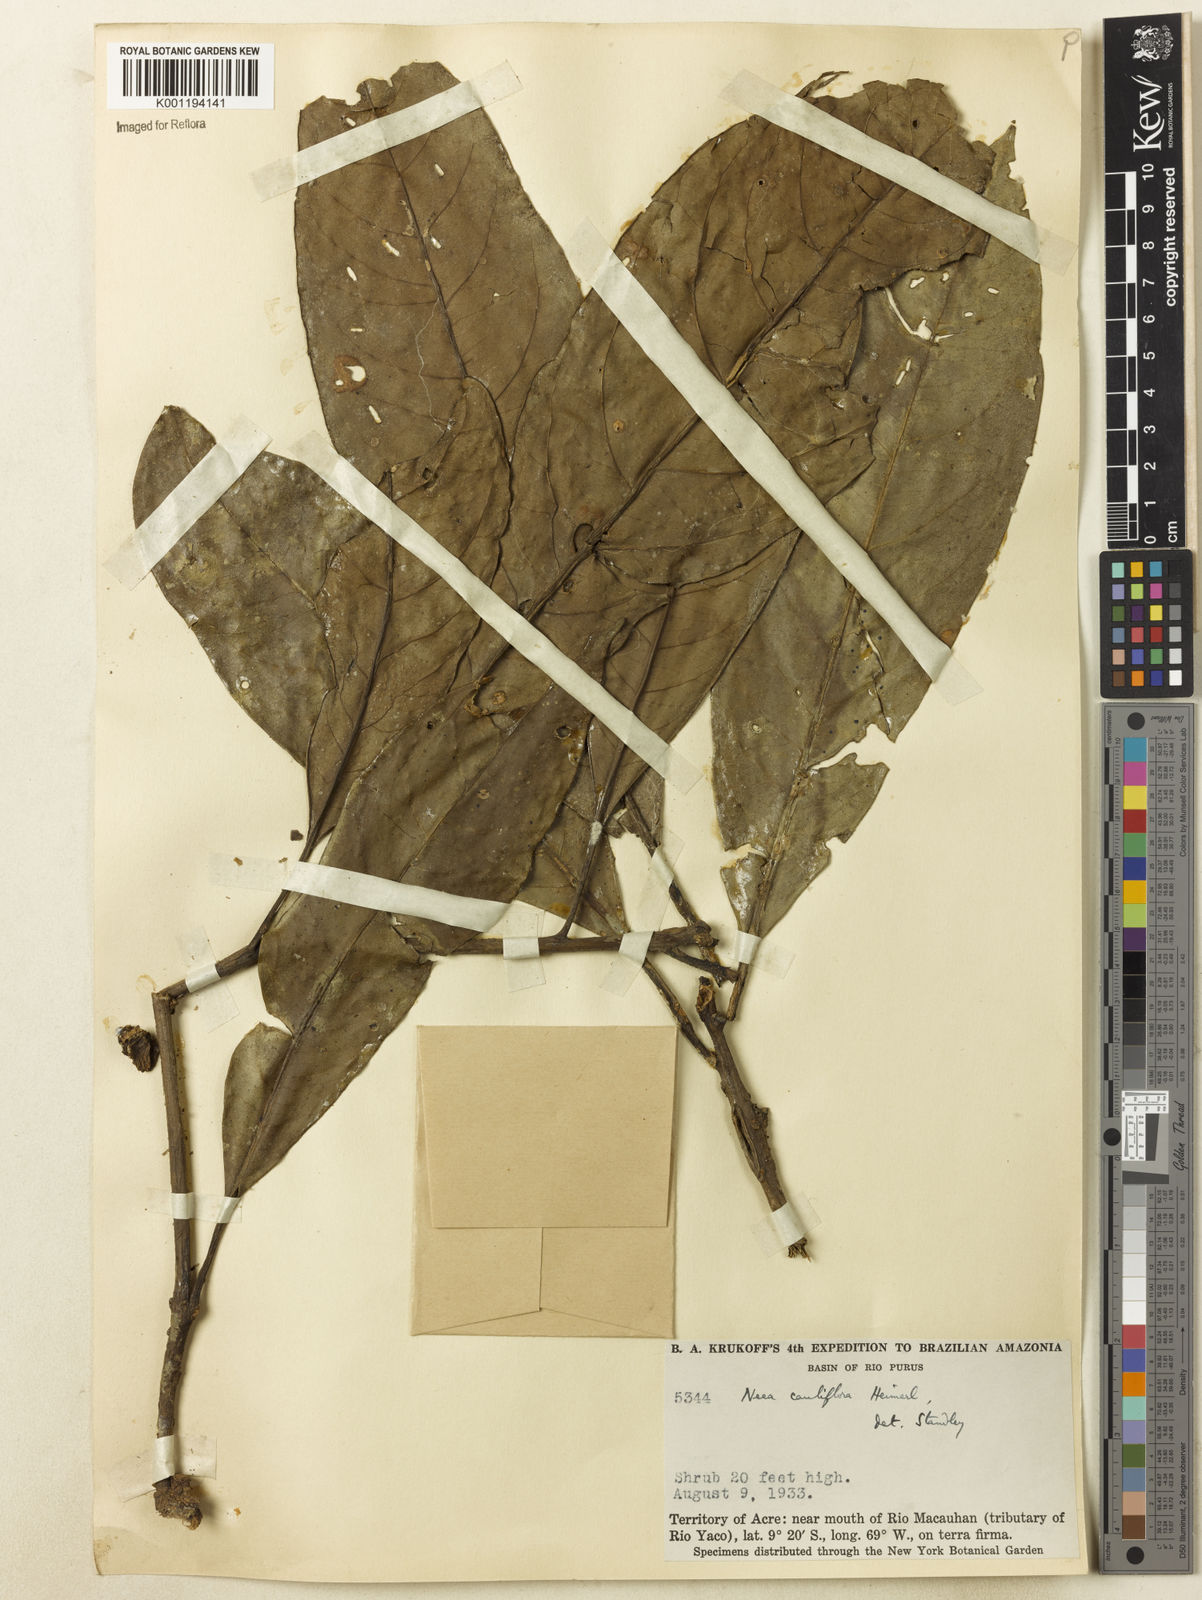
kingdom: Plantae
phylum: Tracheophyta
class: Magnoliopsida
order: Caryophyllales
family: Nyctaginaceae
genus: Neea
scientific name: Neea floribunda
